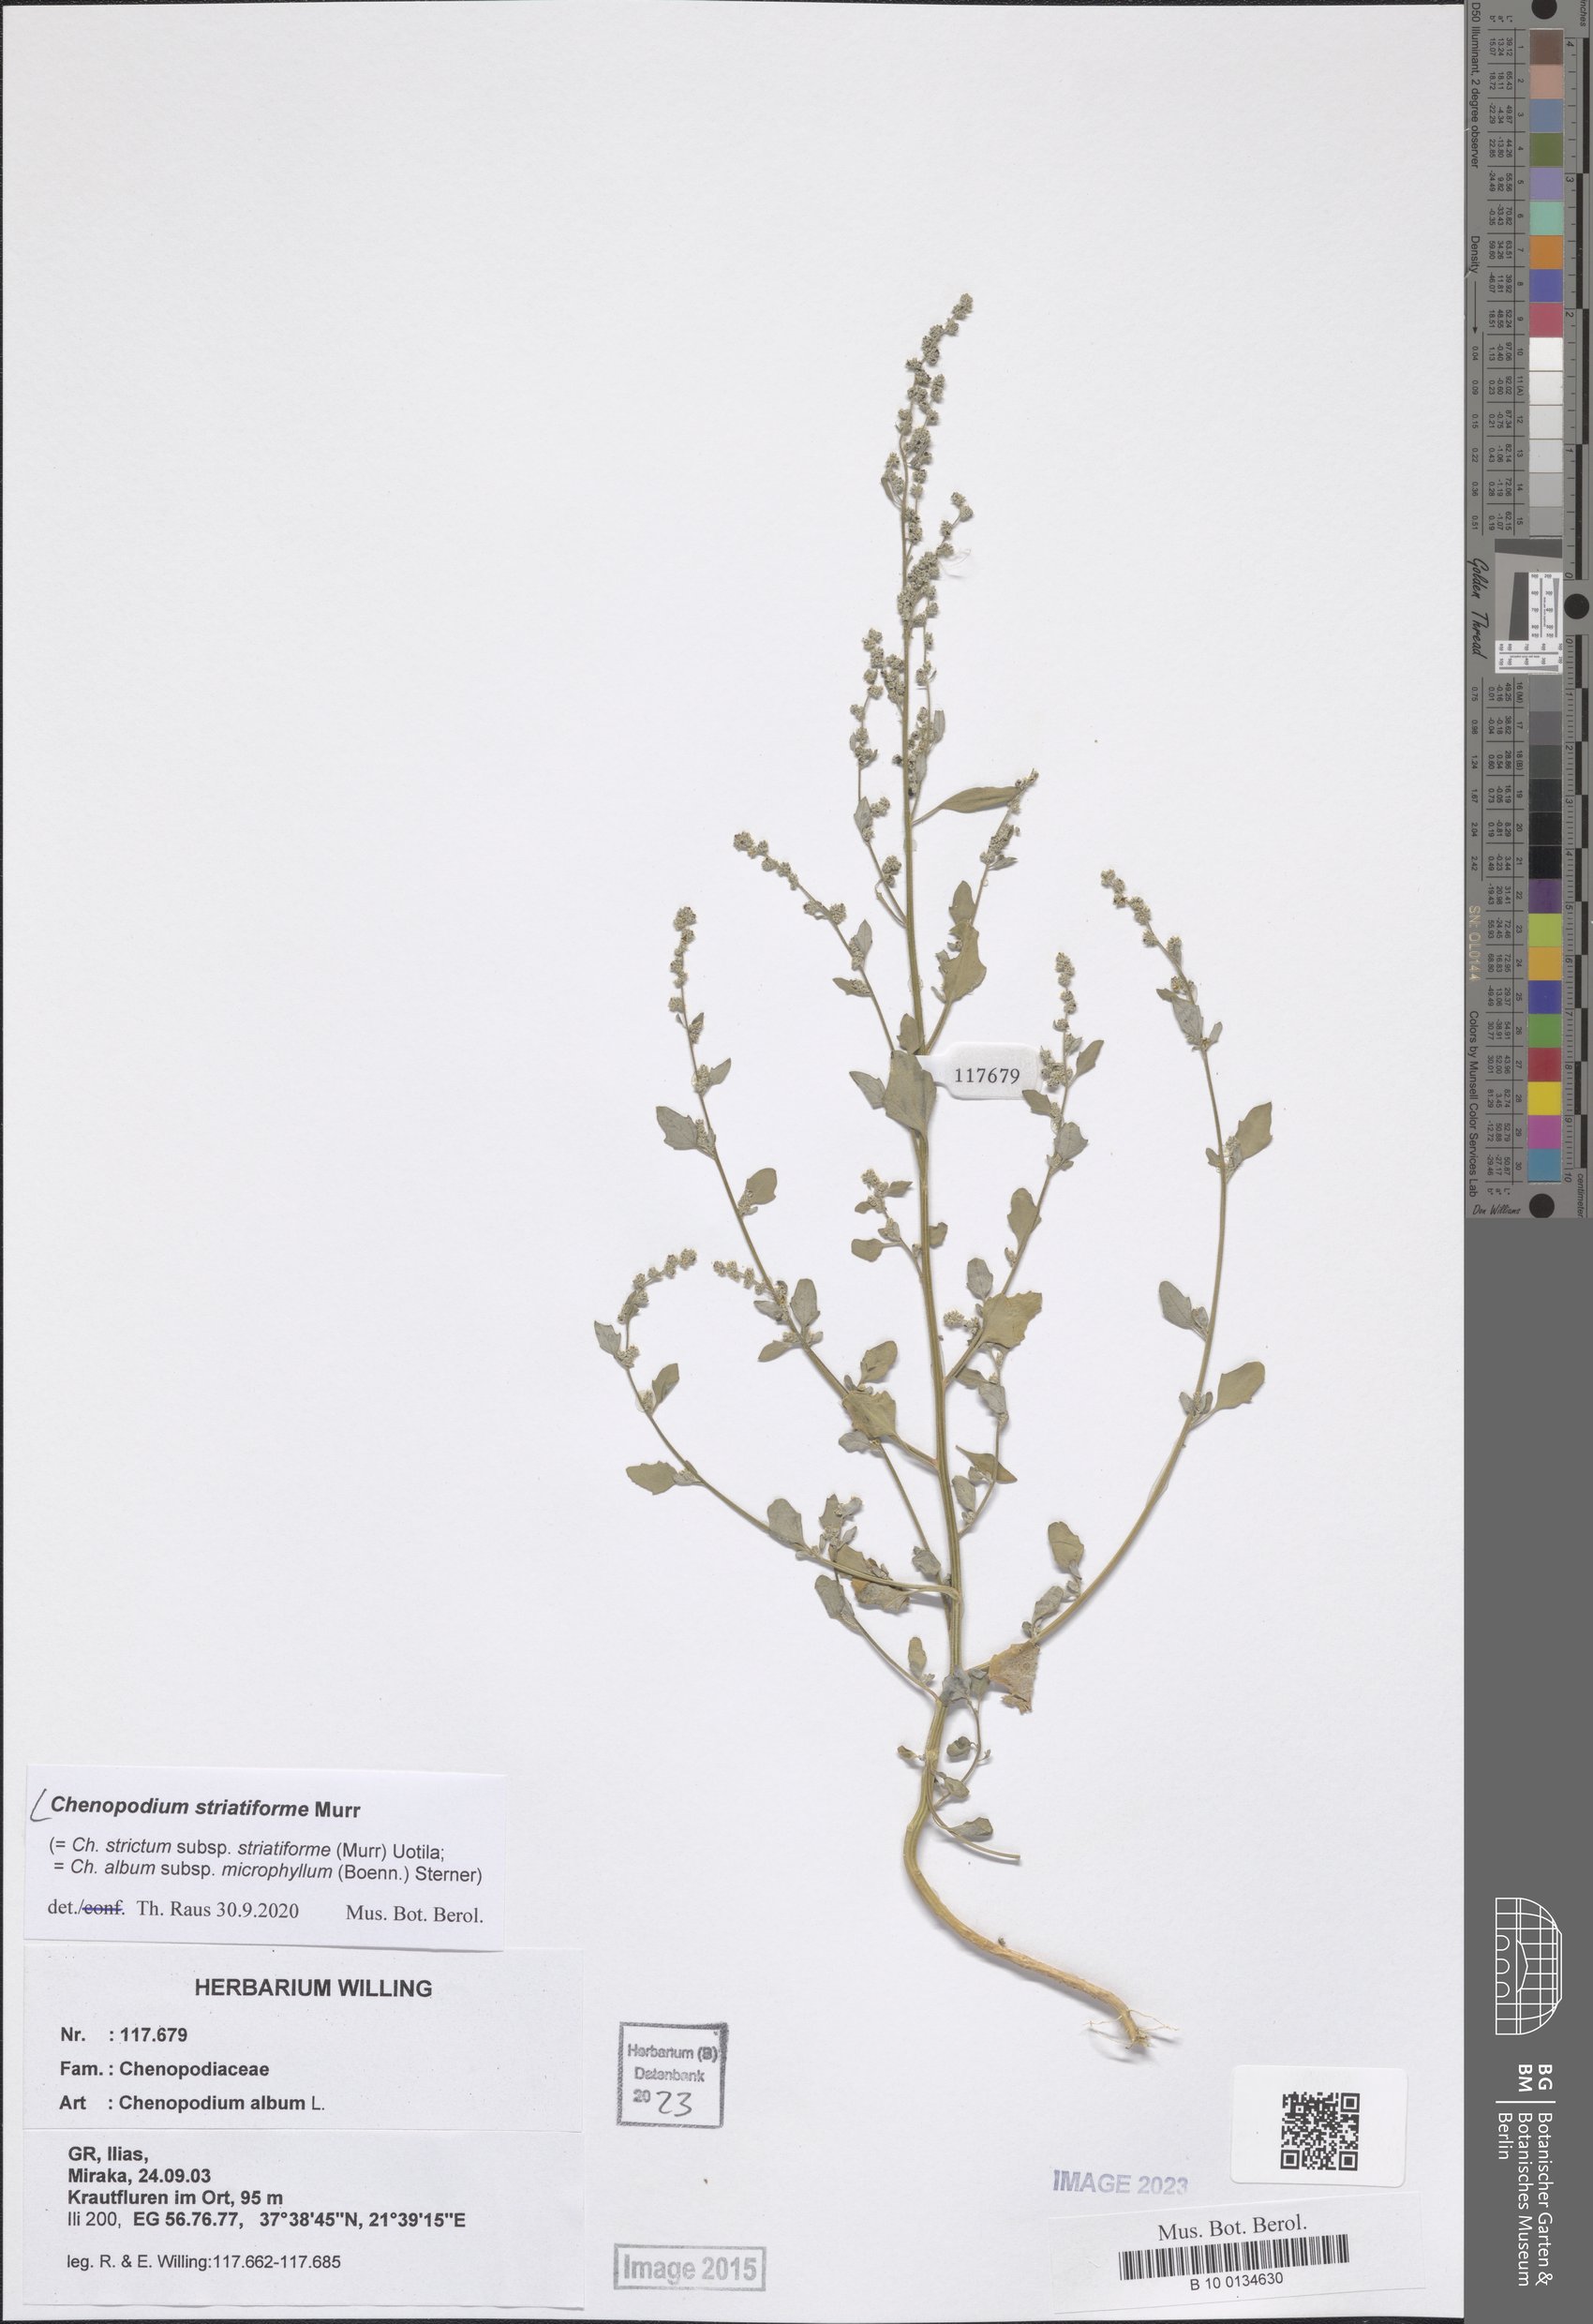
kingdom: Plantae
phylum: Tracheophyta
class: Magnoliopsida
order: Caryophyllales
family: Amaranthaceae
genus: Chenopodium
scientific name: Chenopodium striatiforme
